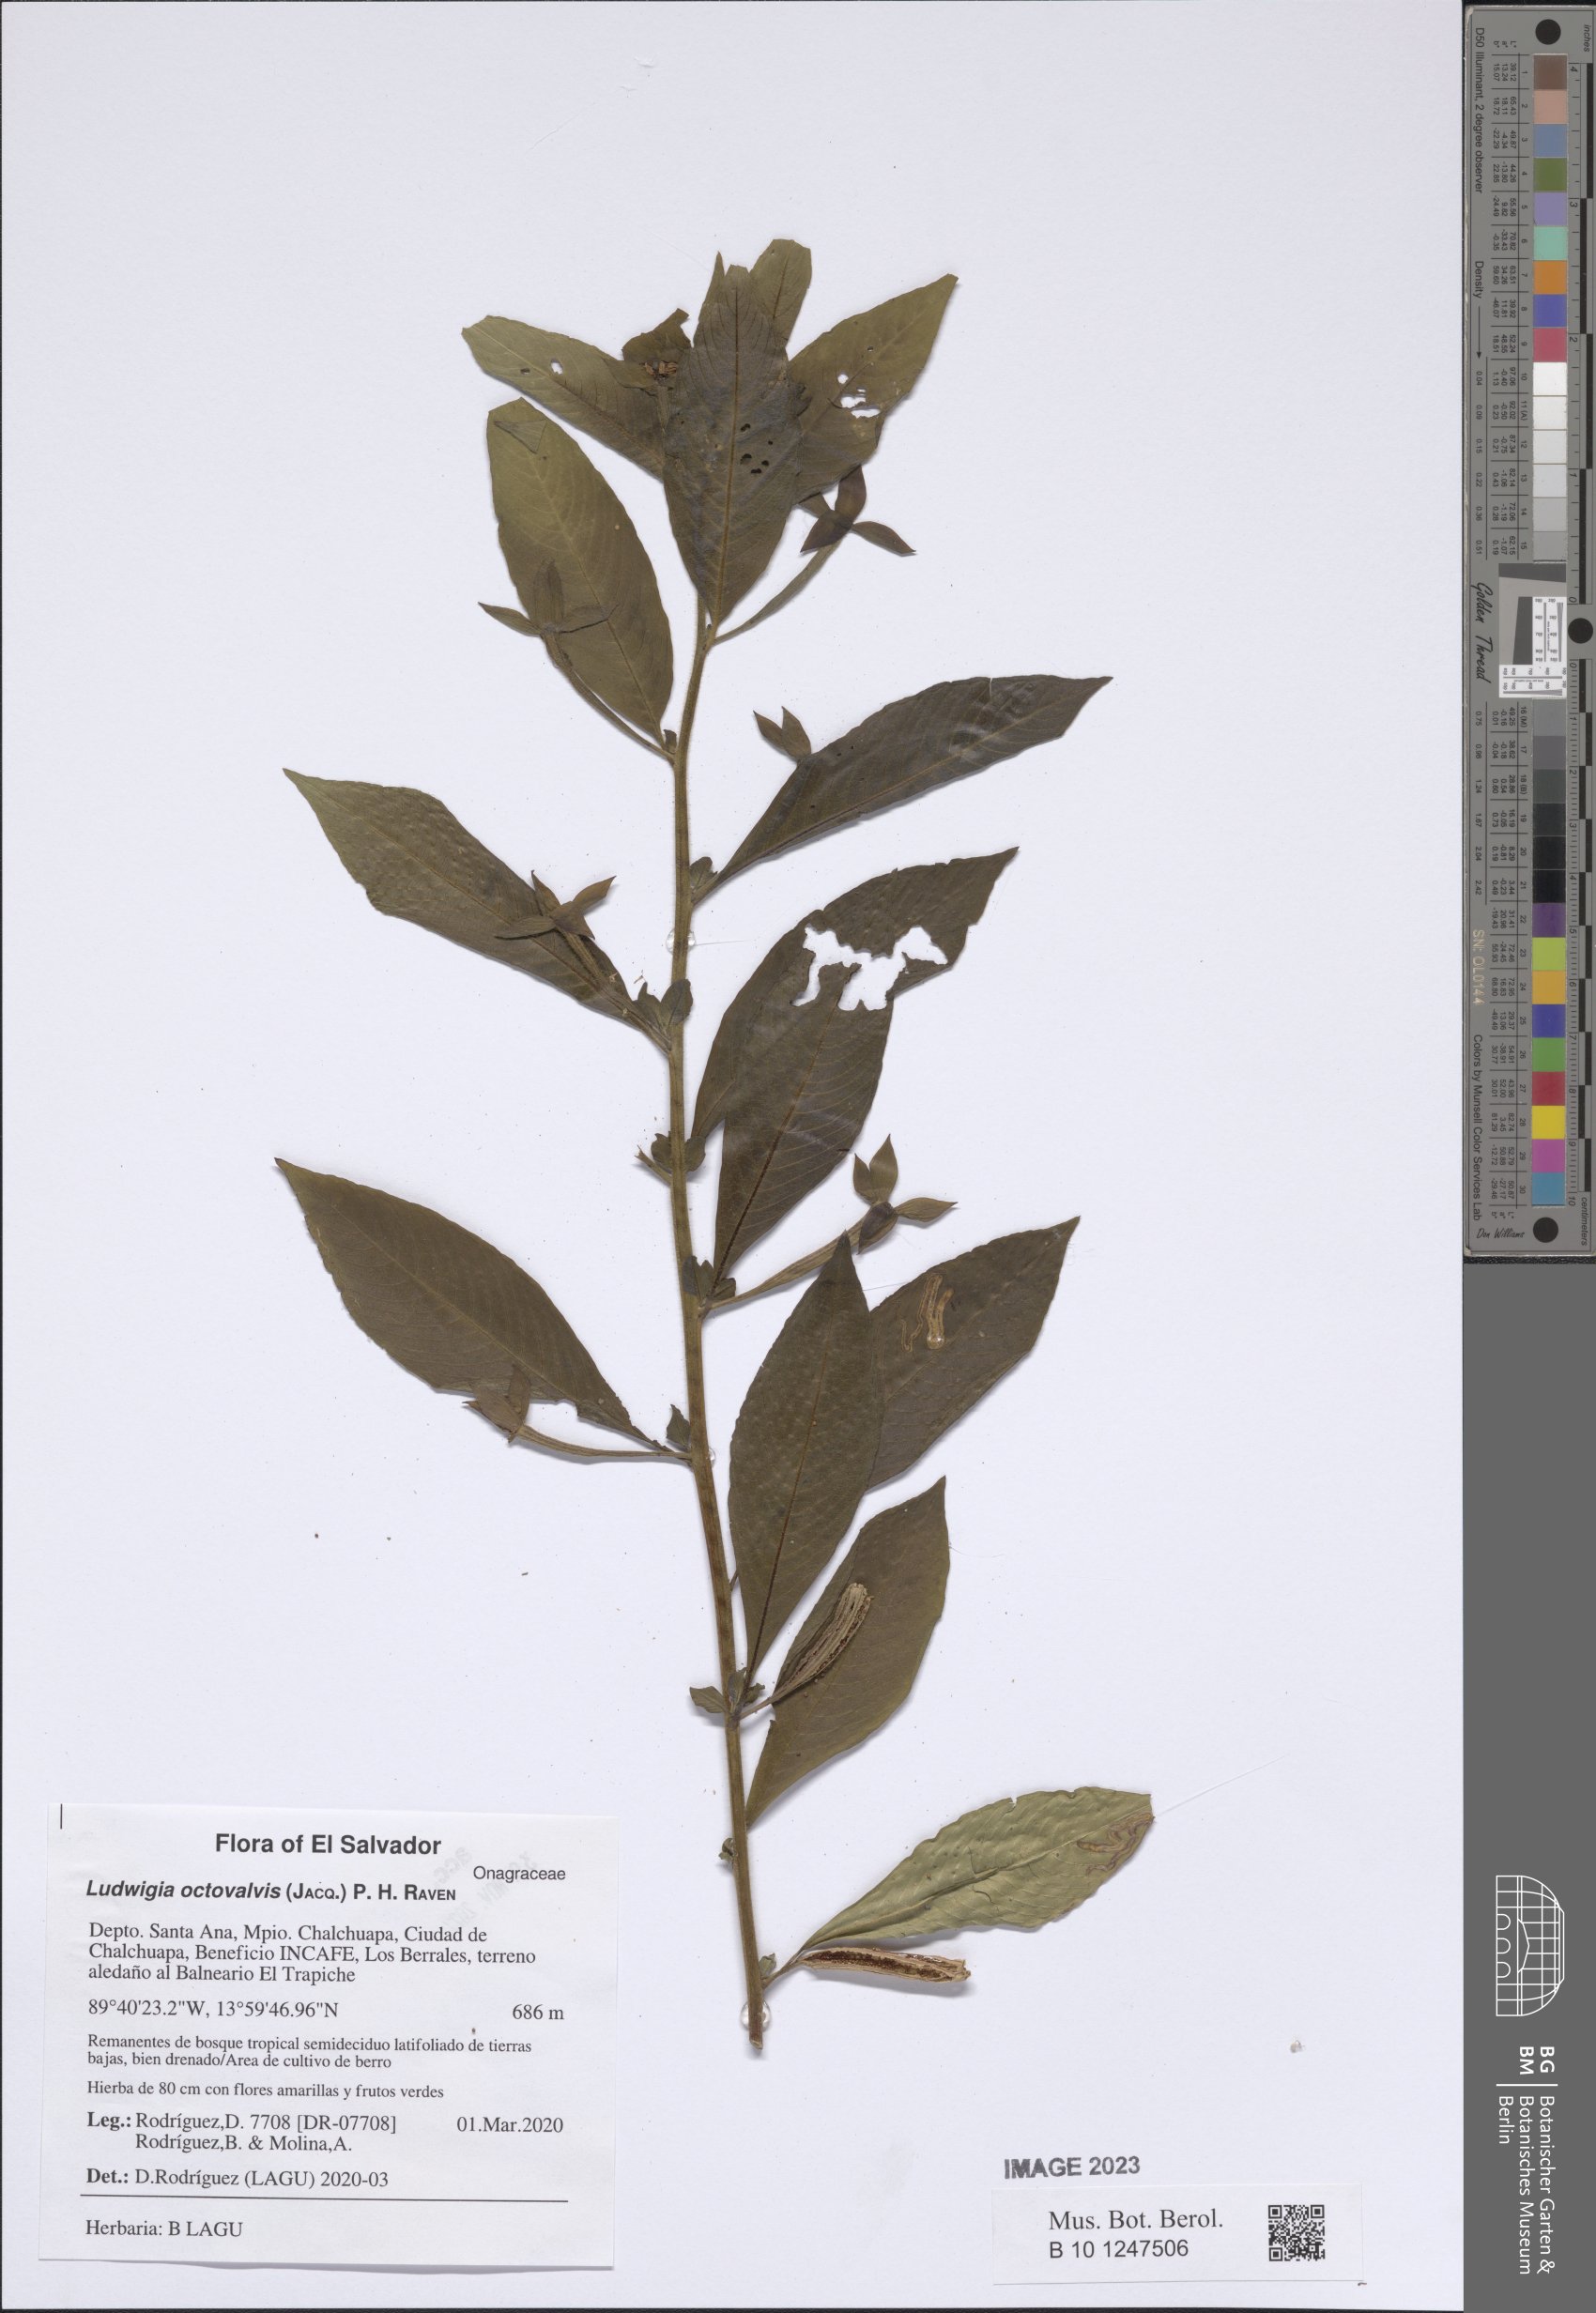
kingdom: Plantae
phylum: Tracheophyta
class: Magnoliopsida
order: Myrtales
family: Onagraceae
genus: Ludwigia
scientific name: Ludwigia octovalvis
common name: Water-primrose
